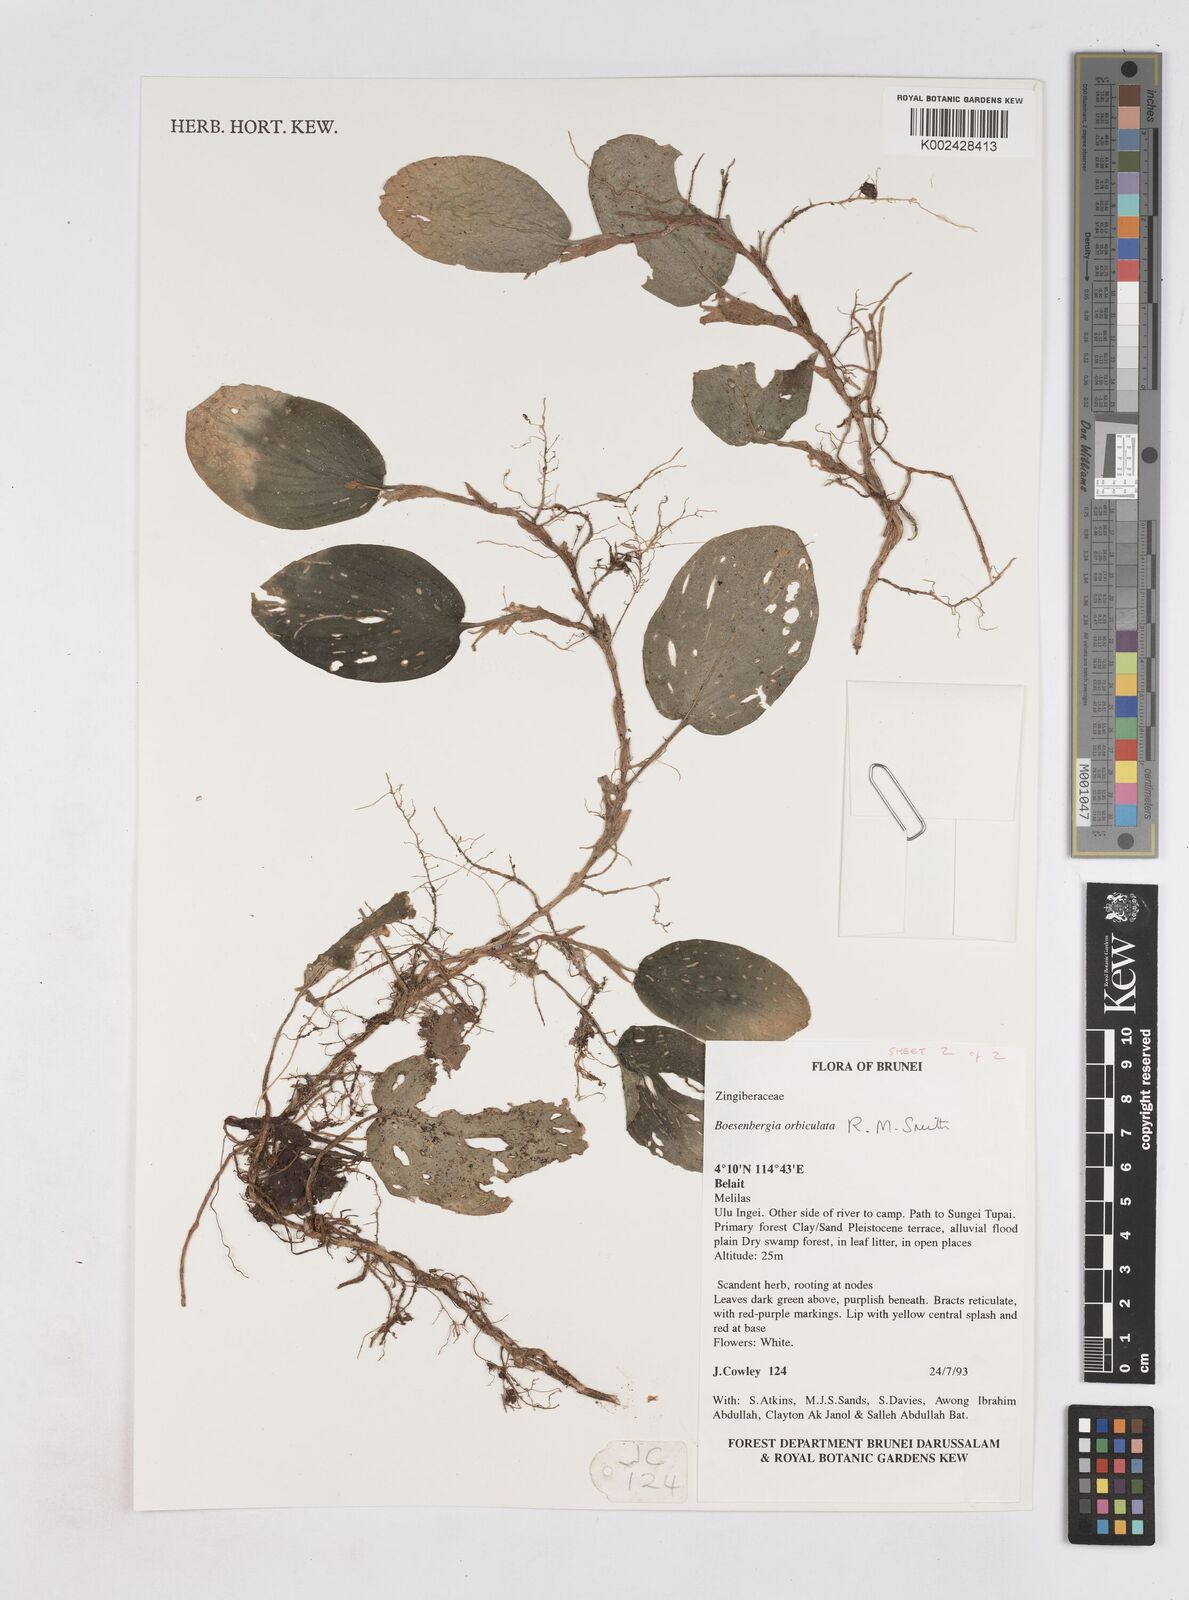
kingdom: Plantae
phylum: Tracheophyta
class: Liliopsida
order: Zingiberales
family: Zingiberaceae
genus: Boesenbergia
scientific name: Boesenbergia orbiculata
